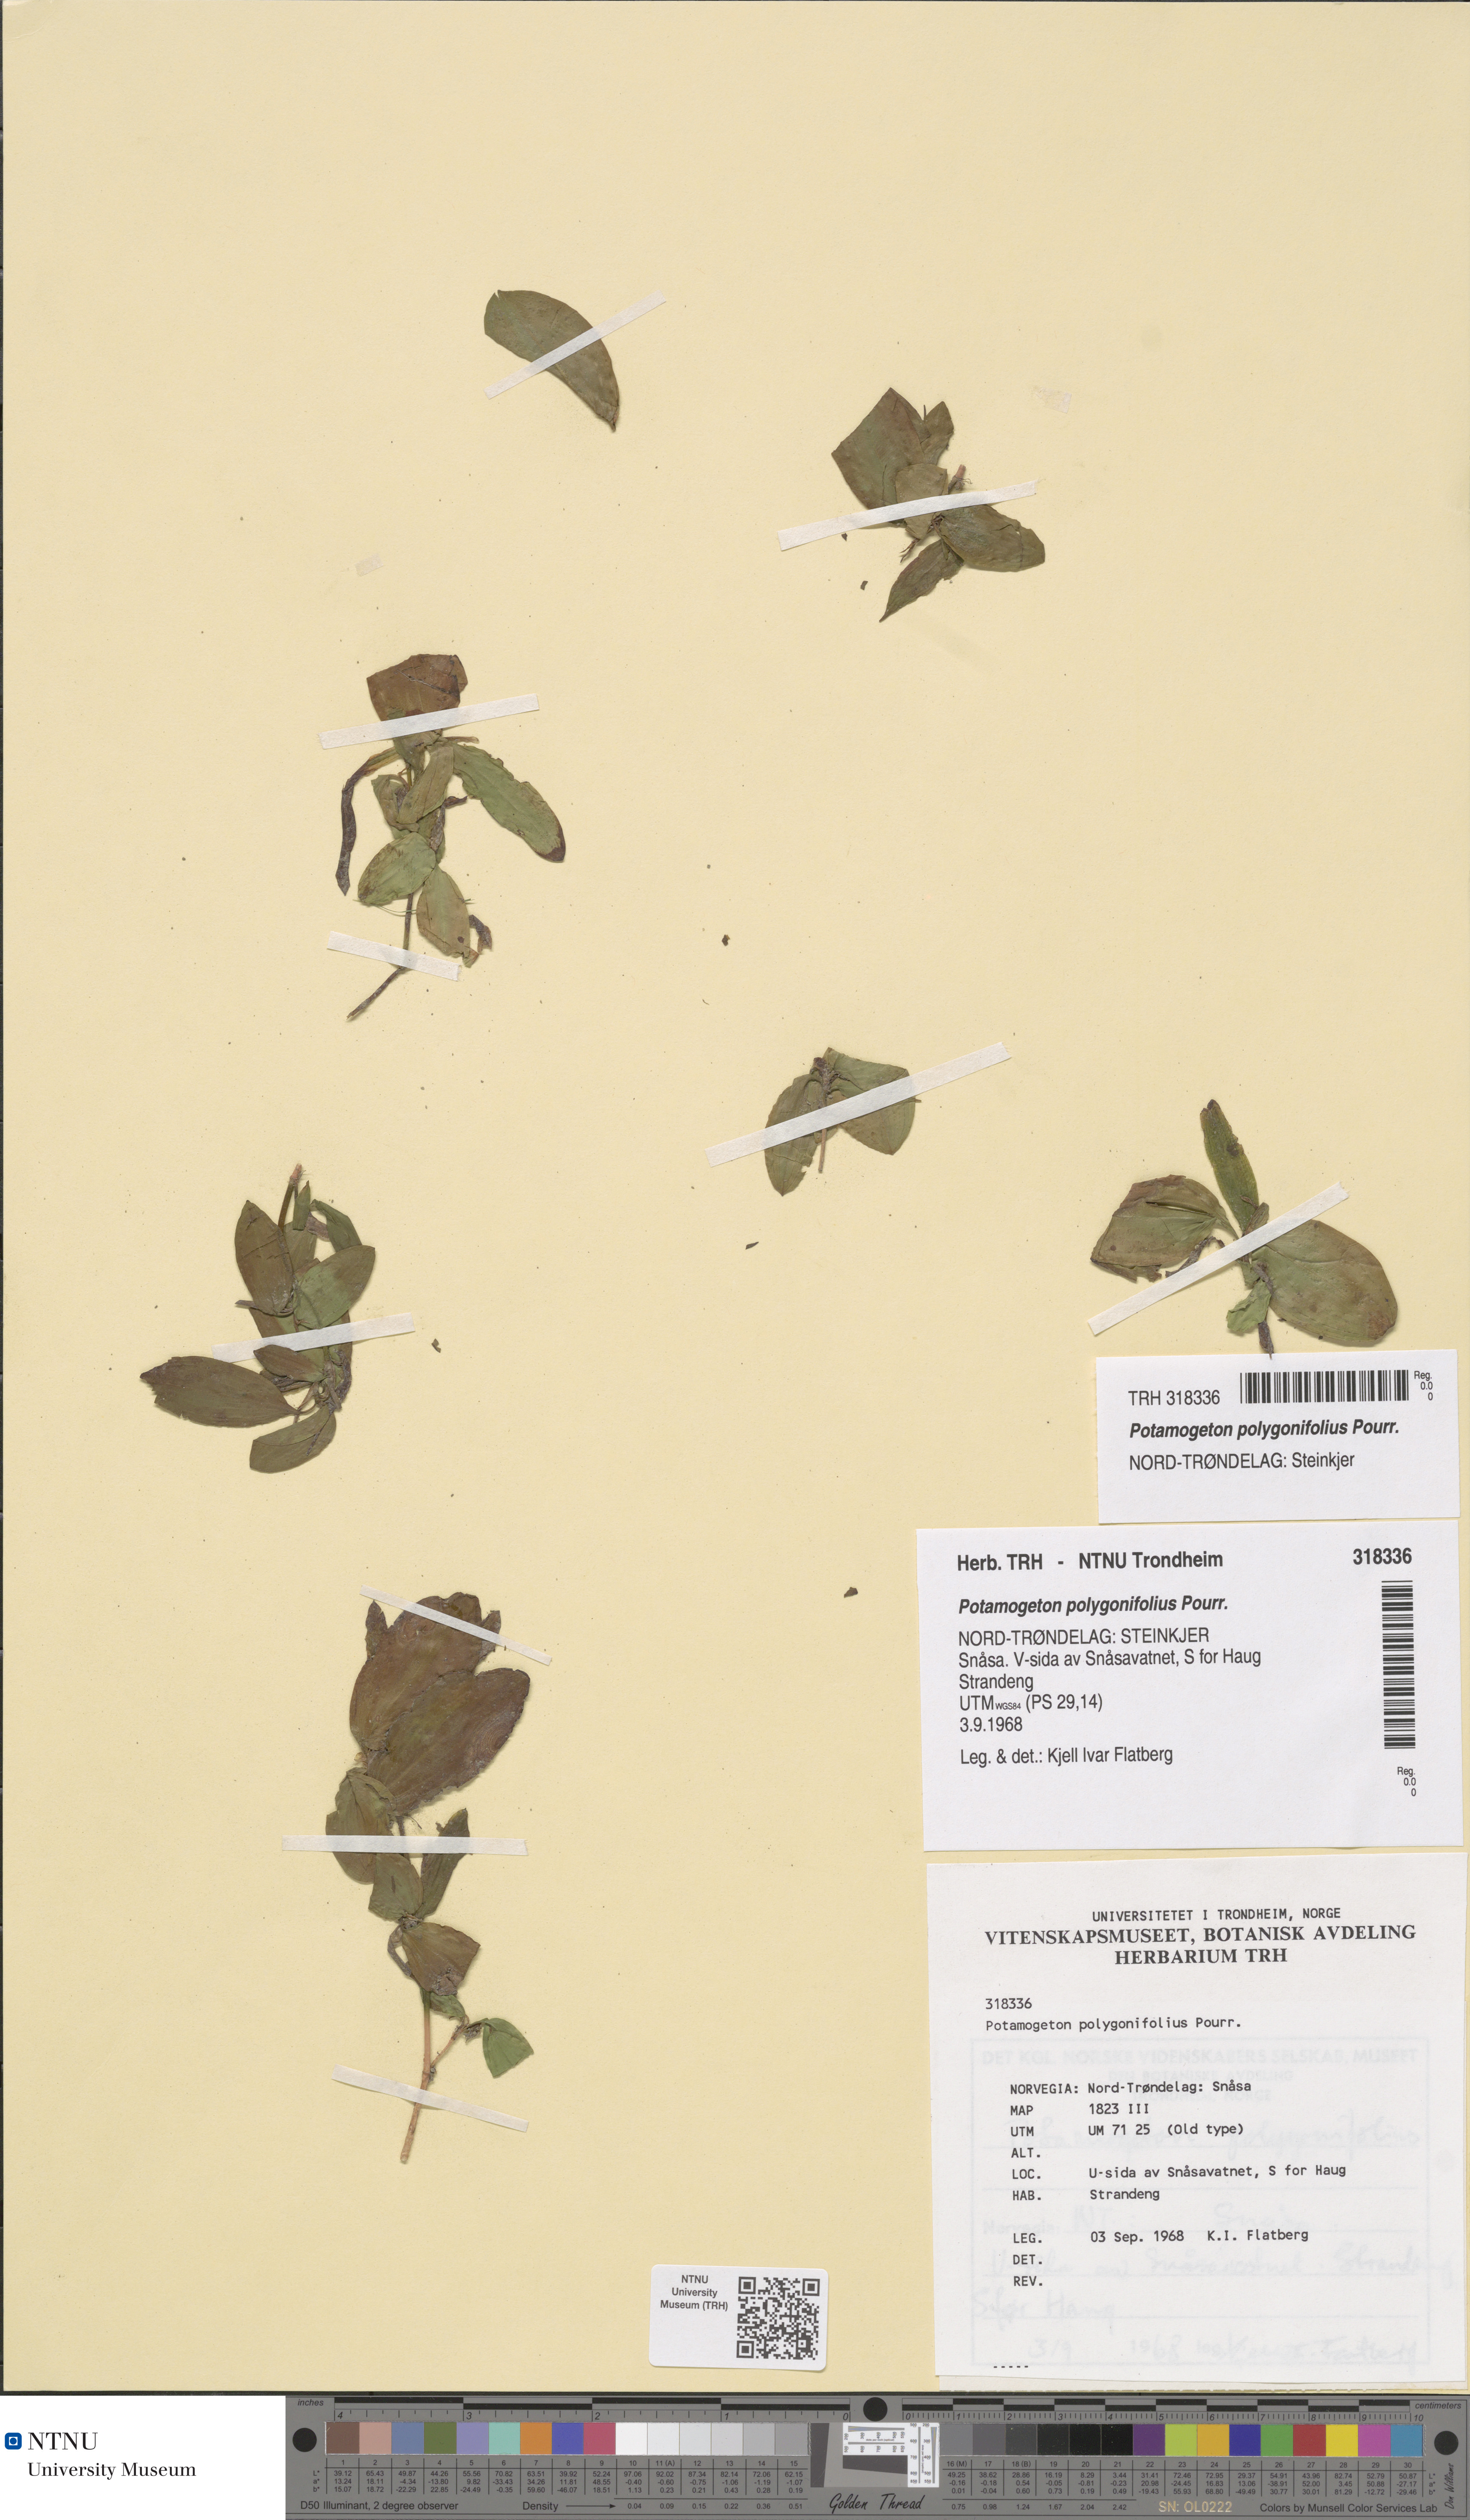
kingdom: Plantae
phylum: Tracheophyta
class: Liliopsida
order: Alismatales
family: Potamogetonaceae
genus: Potamogeton
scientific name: Potamogeton polygonifolius
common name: Bog pondweed
